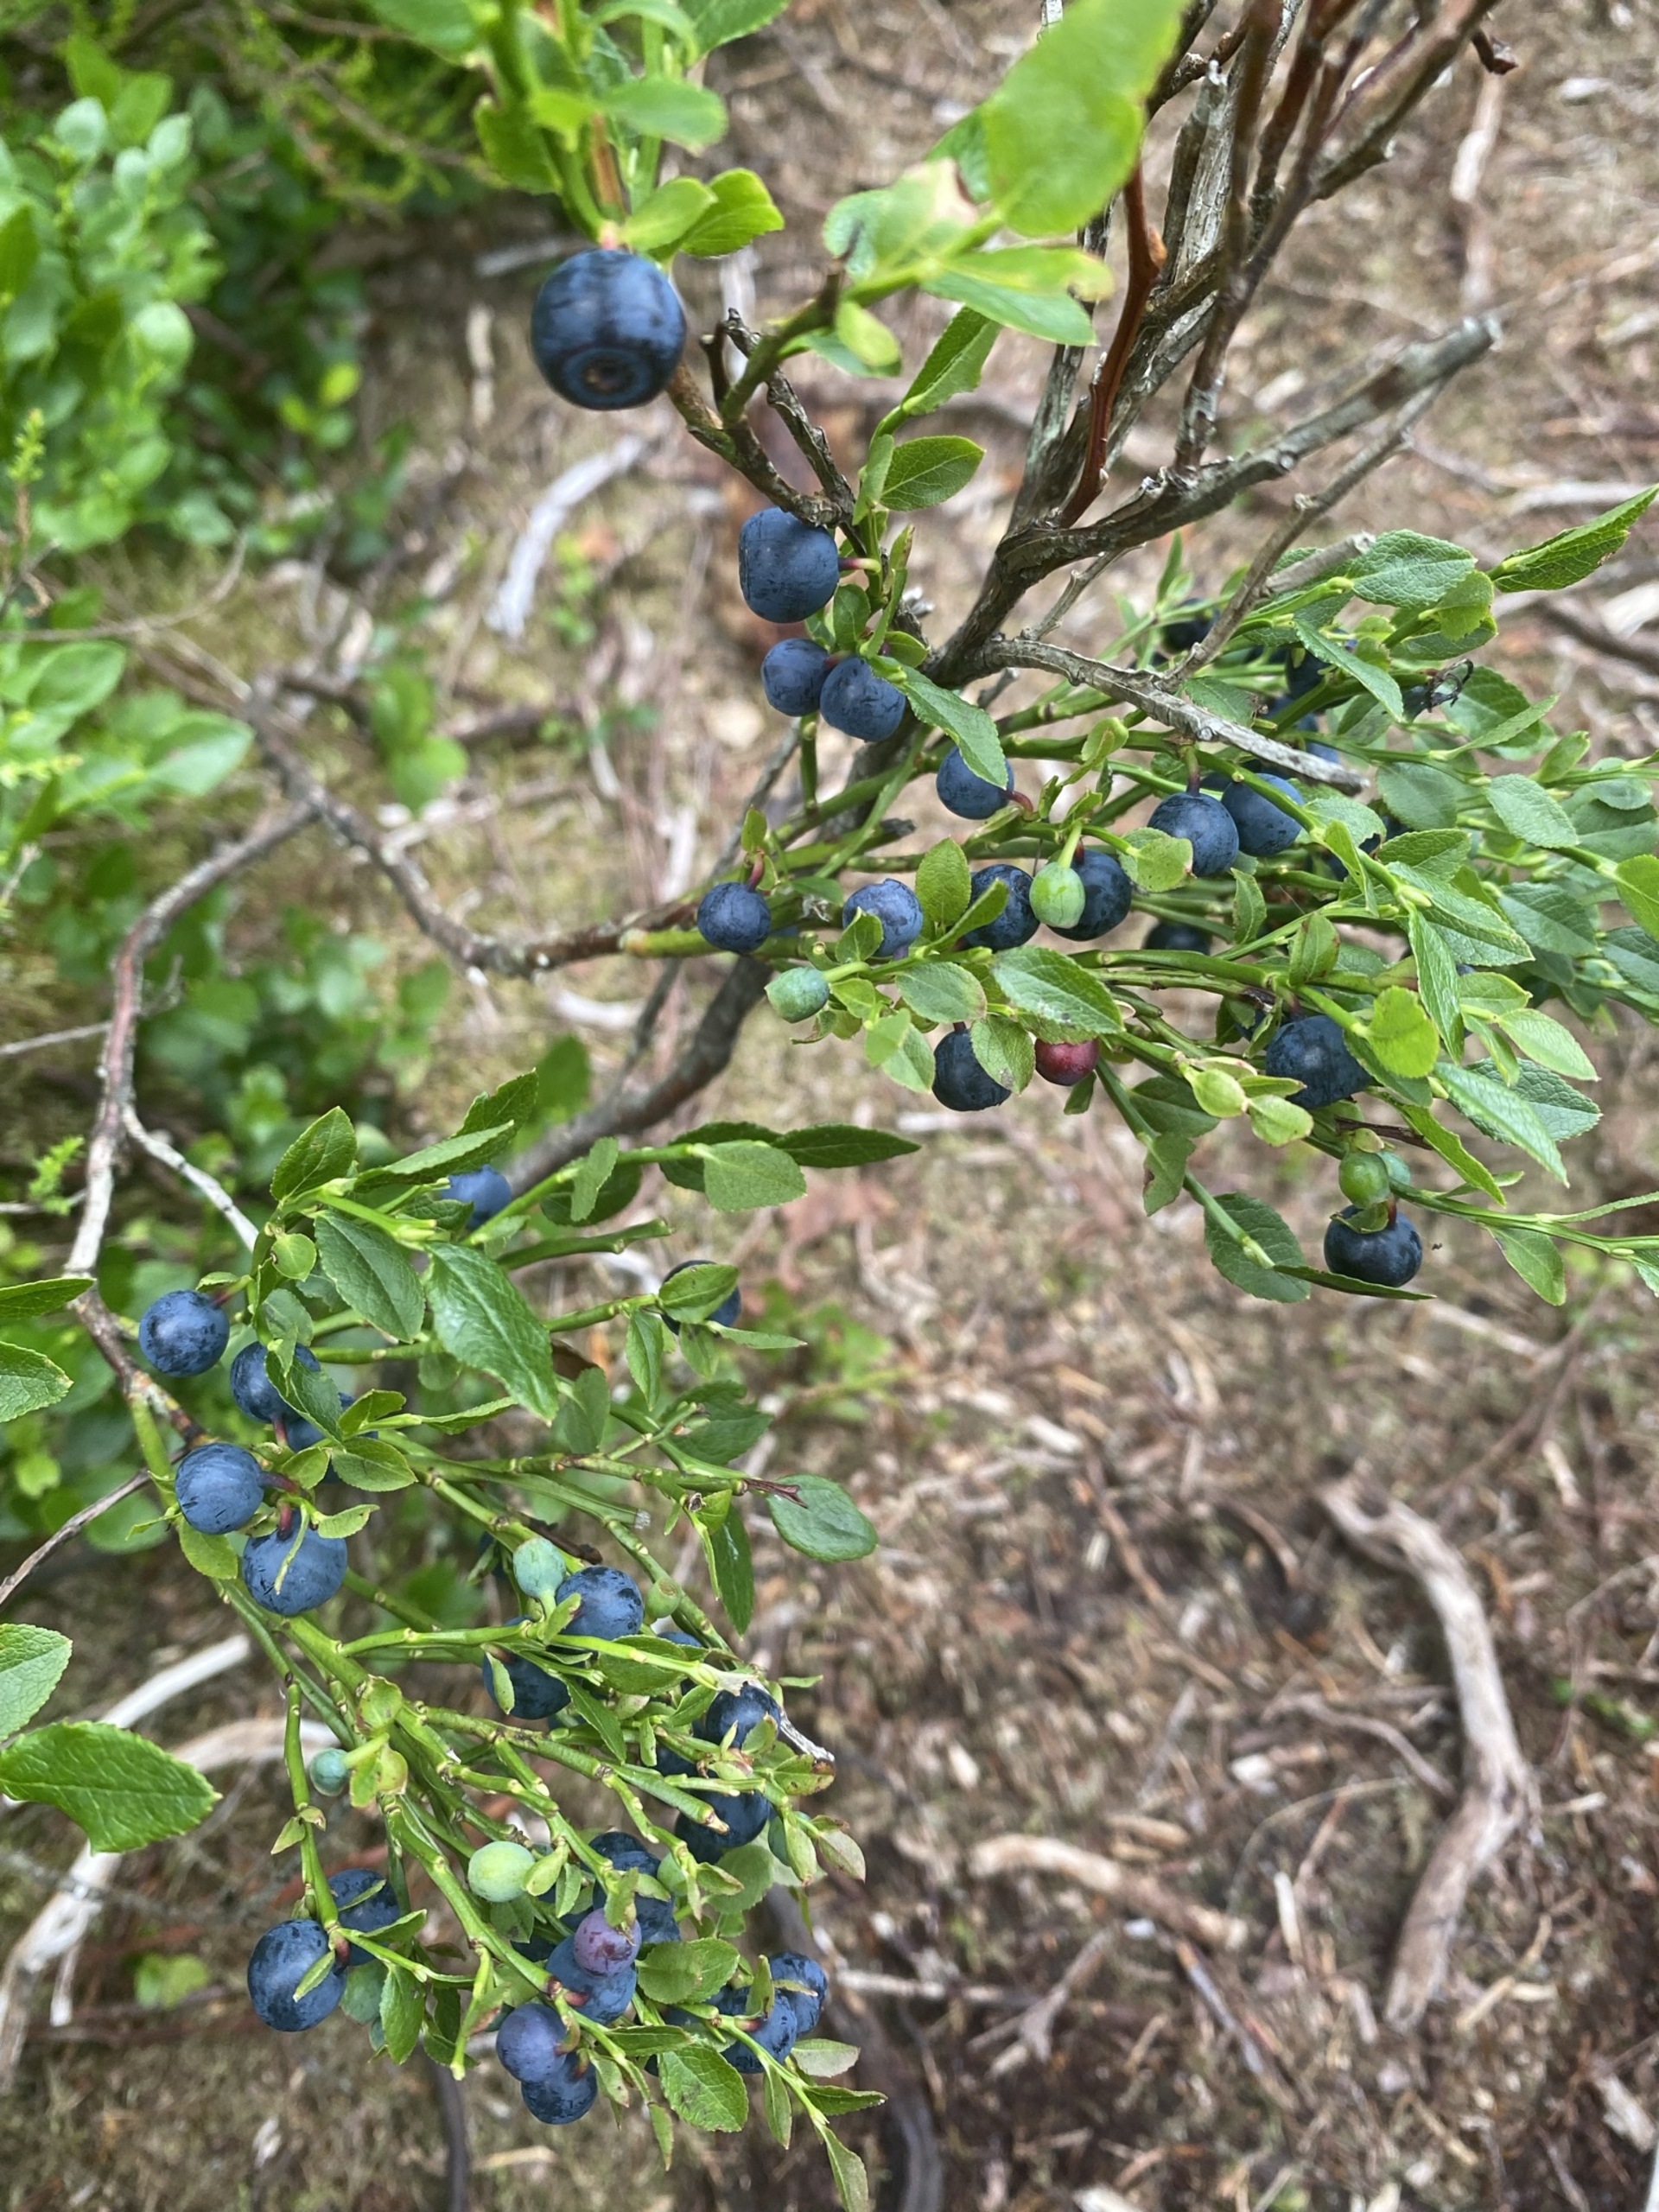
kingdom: Plantae
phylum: Tracheophyta
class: Magnoliopsida
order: Ericales
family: Ericaceae
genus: Vaccinium
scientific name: Vaccinium myrtillus
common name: Blåbær
